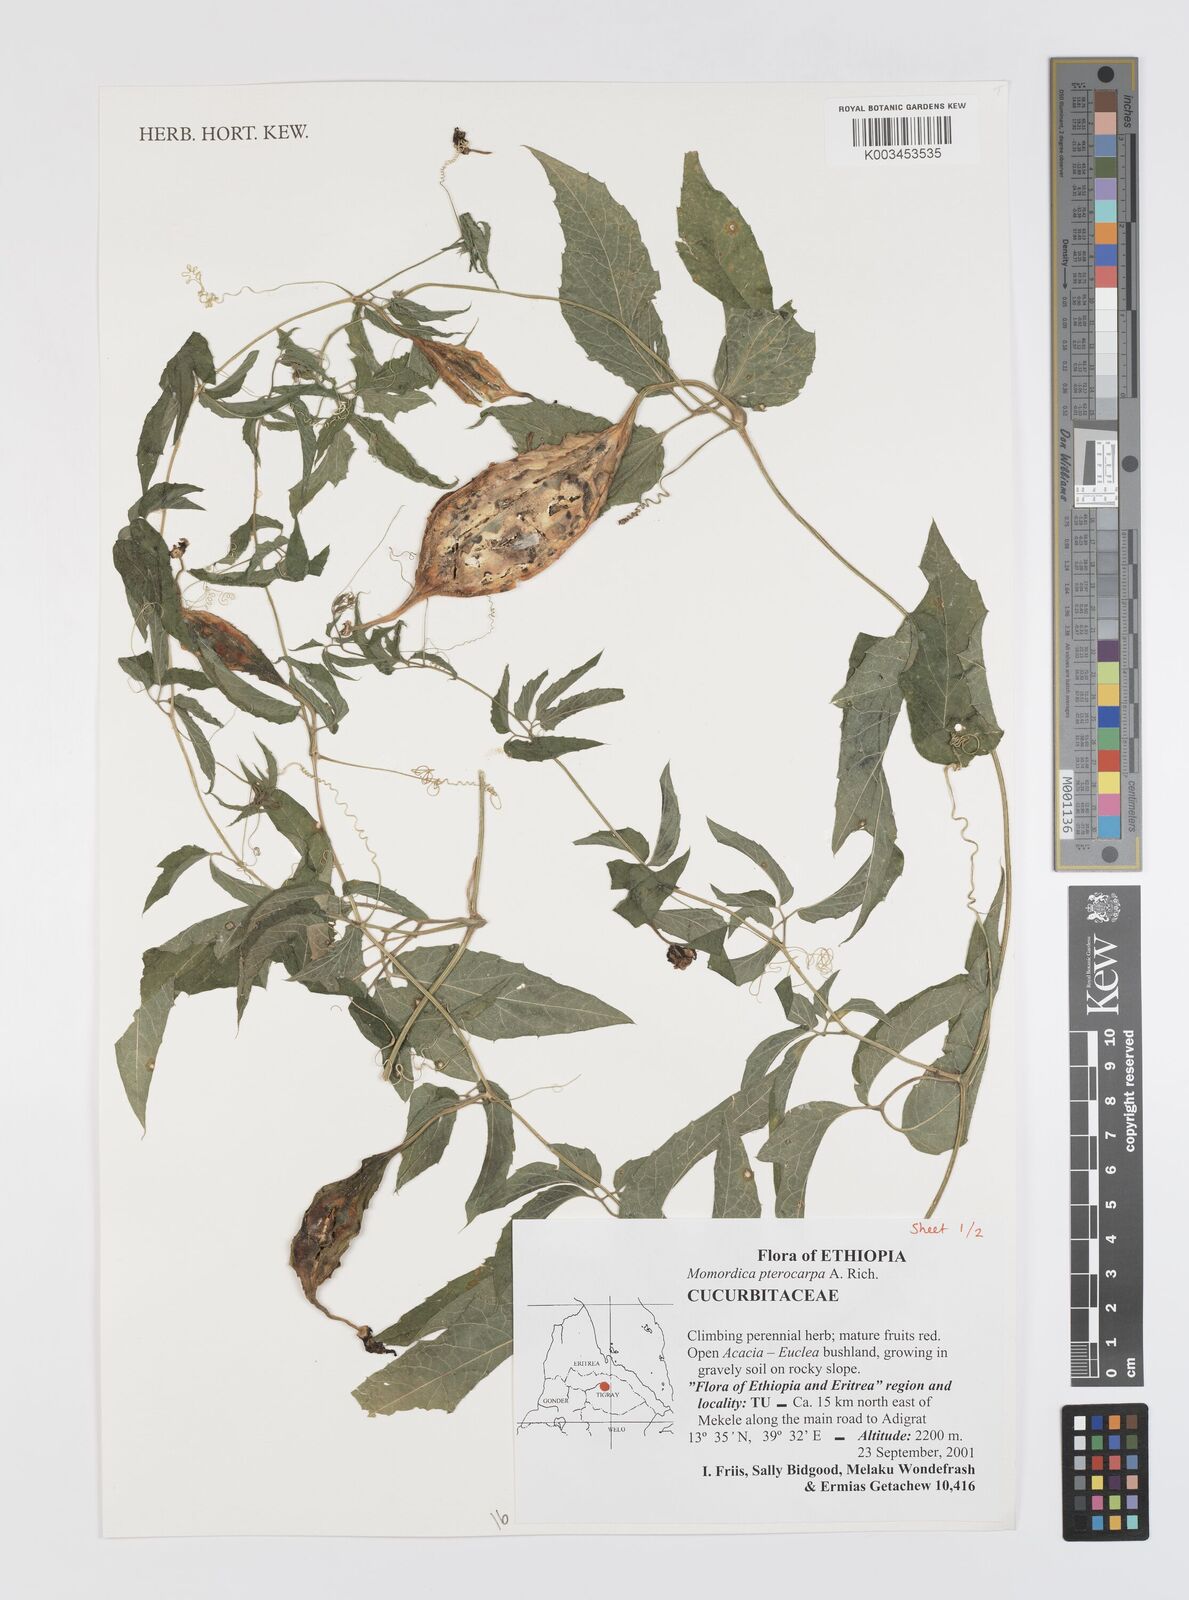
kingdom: Plantae
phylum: Tracheophyta
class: Magnoliopsida
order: Cucurbitales
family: Cucurbitaceae
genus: Momordica
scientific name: Momordica pterocarpa
